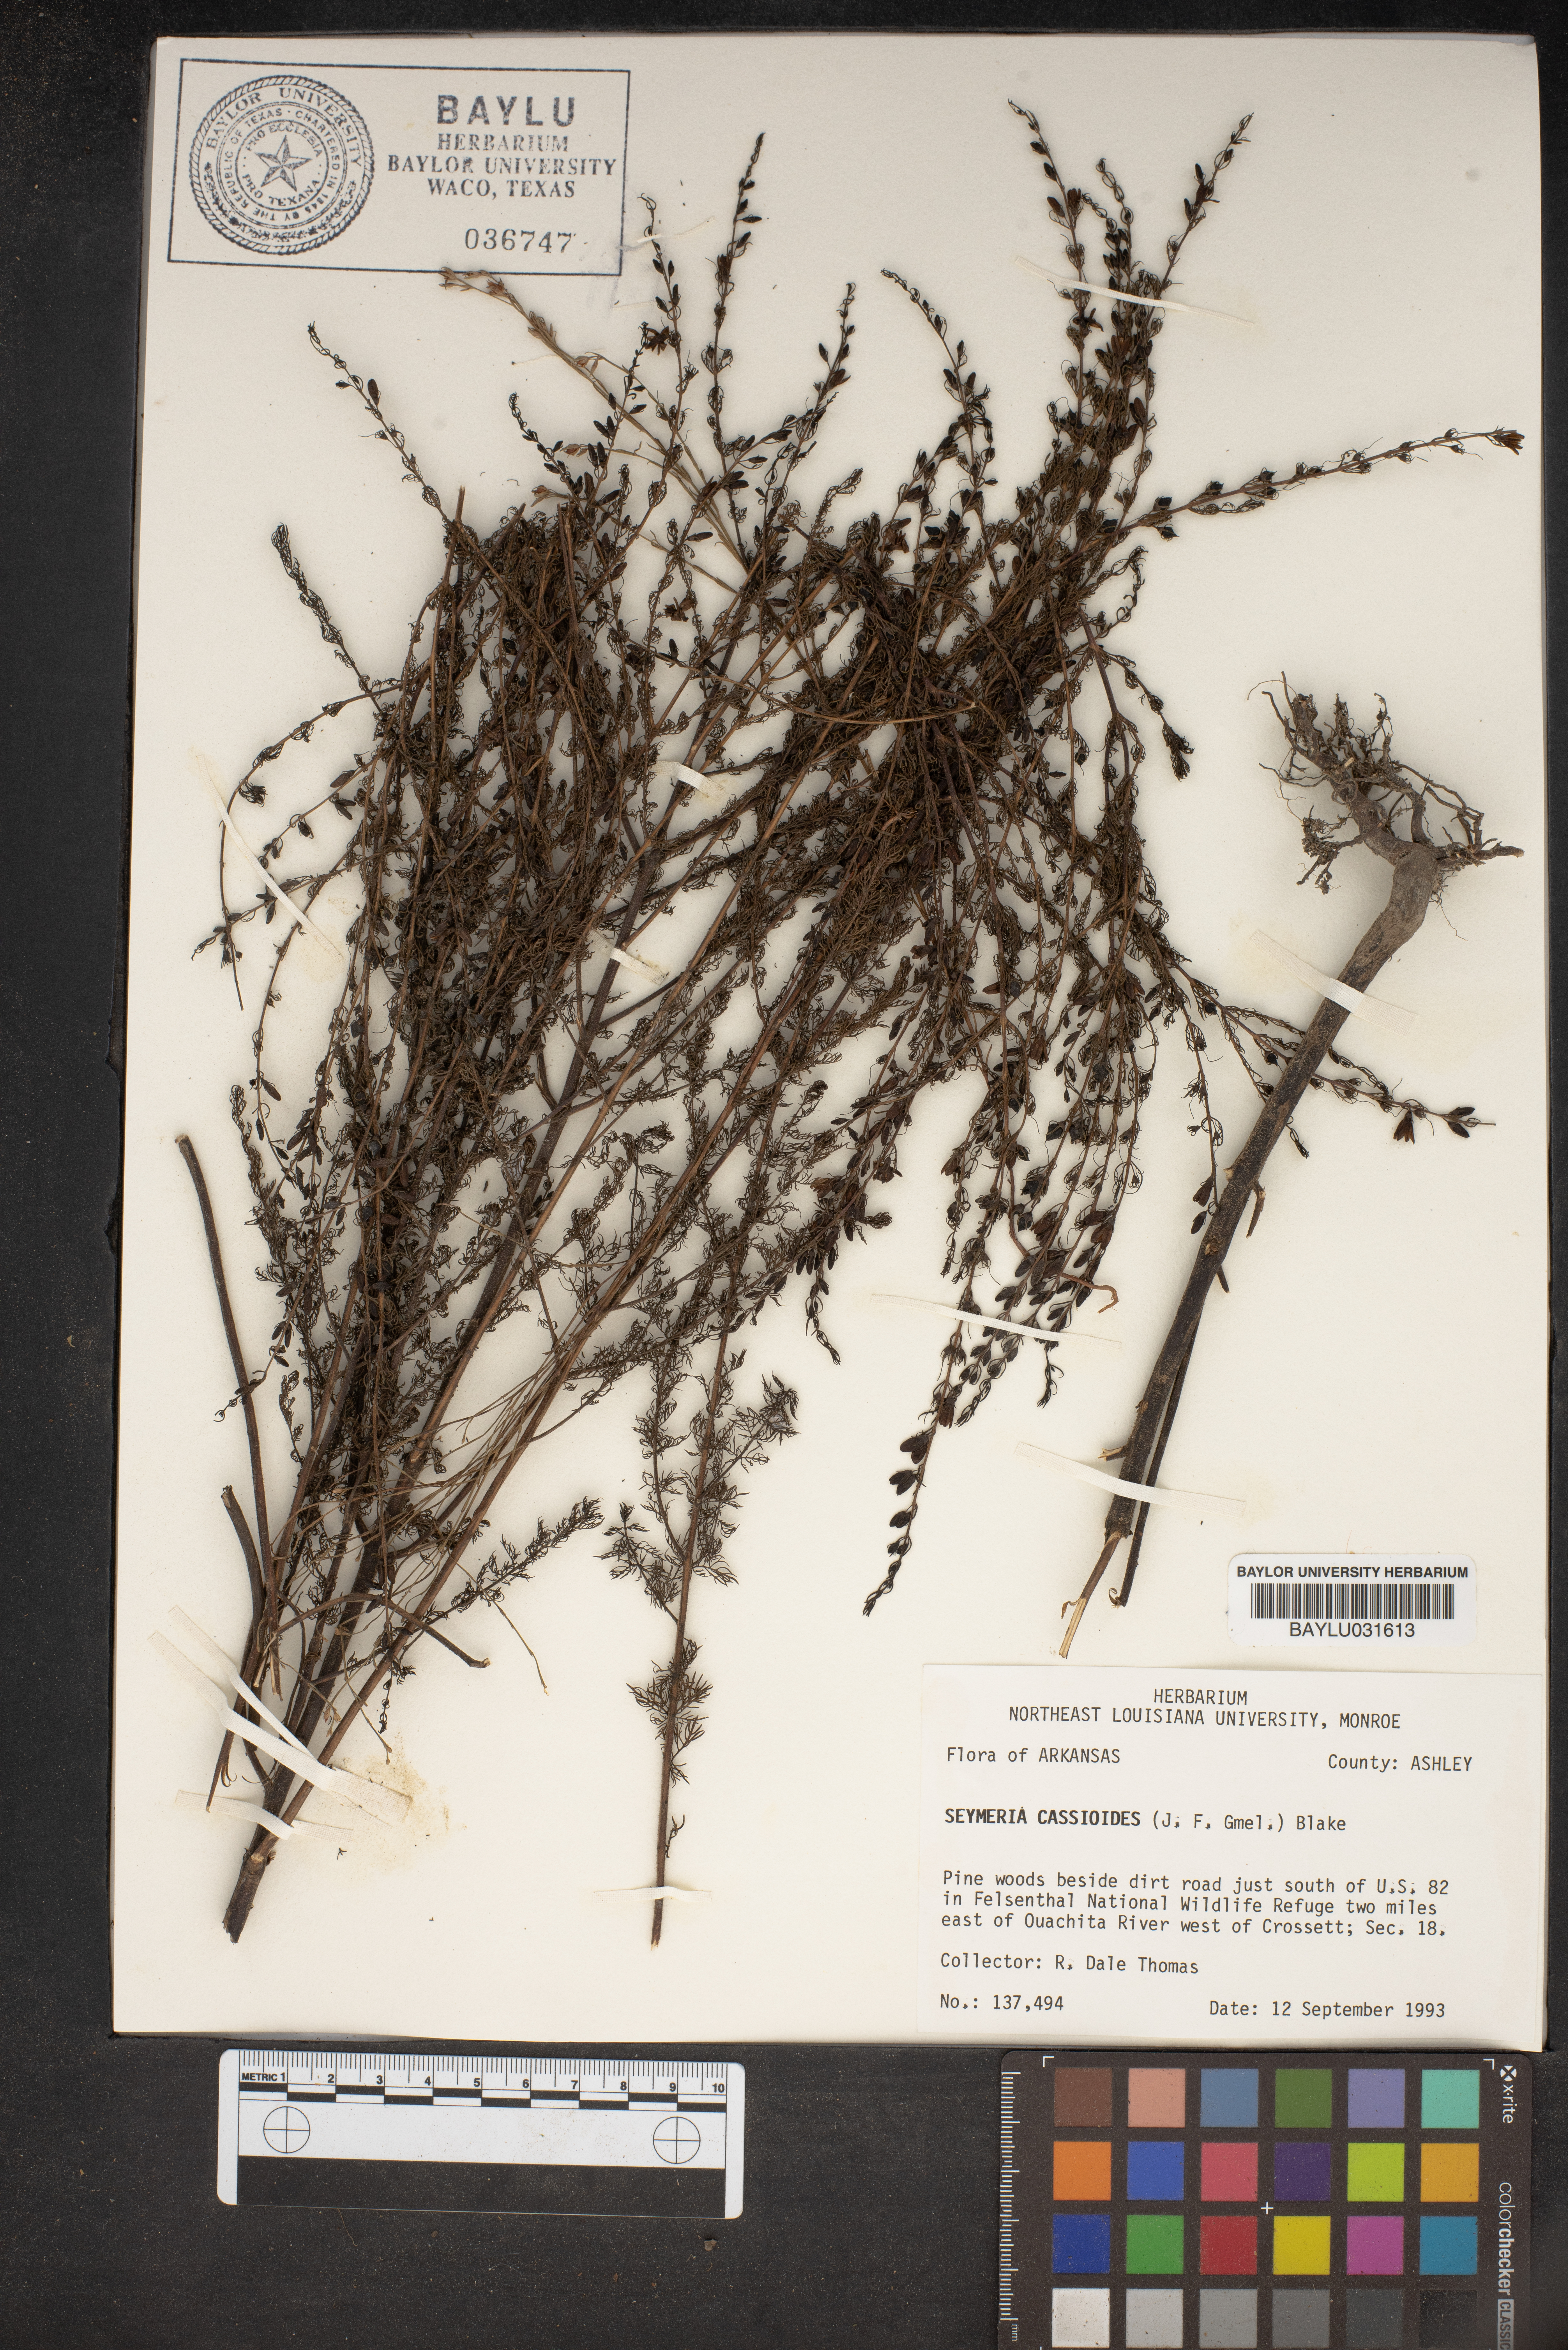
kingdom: Plantae
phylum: Tracheophyta
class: Magnoliopsida
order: Lamiales
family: Orobanchaceae
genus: Seymeria
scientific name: Seymeria cassioides
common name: Yaupon black-senna
